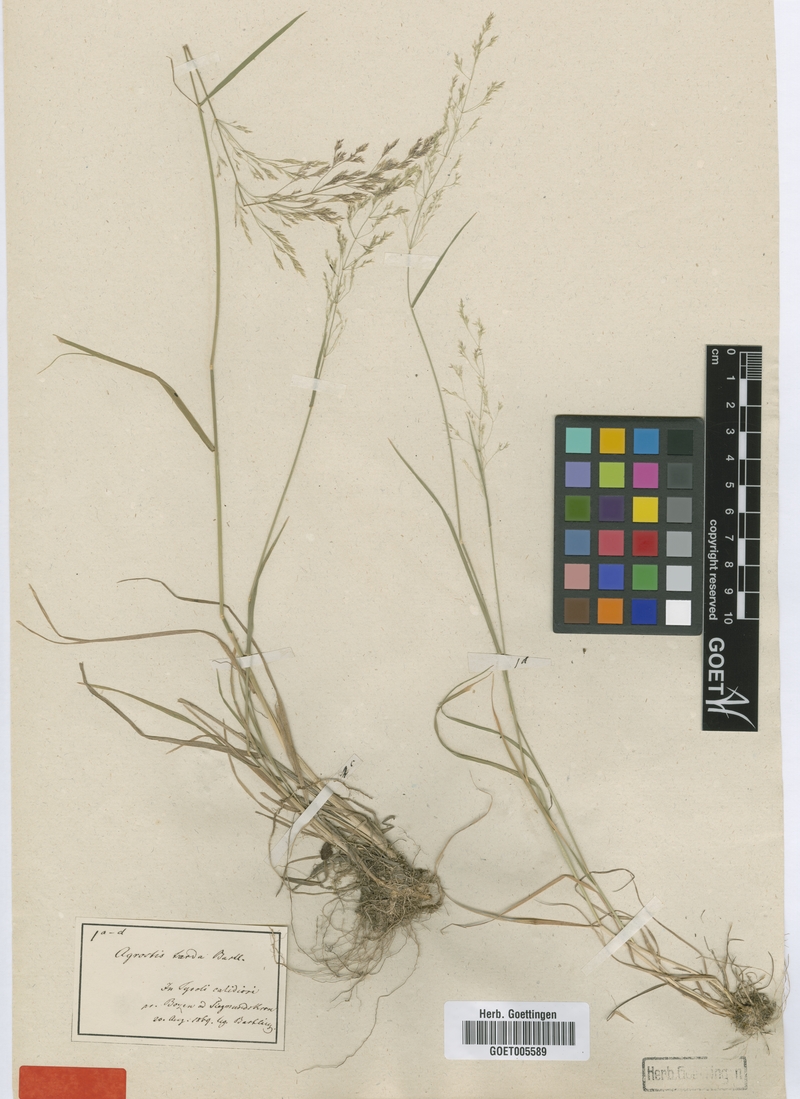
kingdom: Plantae
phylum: Tracheophyta
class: Liliopsida
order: Poales
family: Poaceae
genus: Agrostis
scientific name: Agrostis capillaris
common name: Colonial bentgrass
